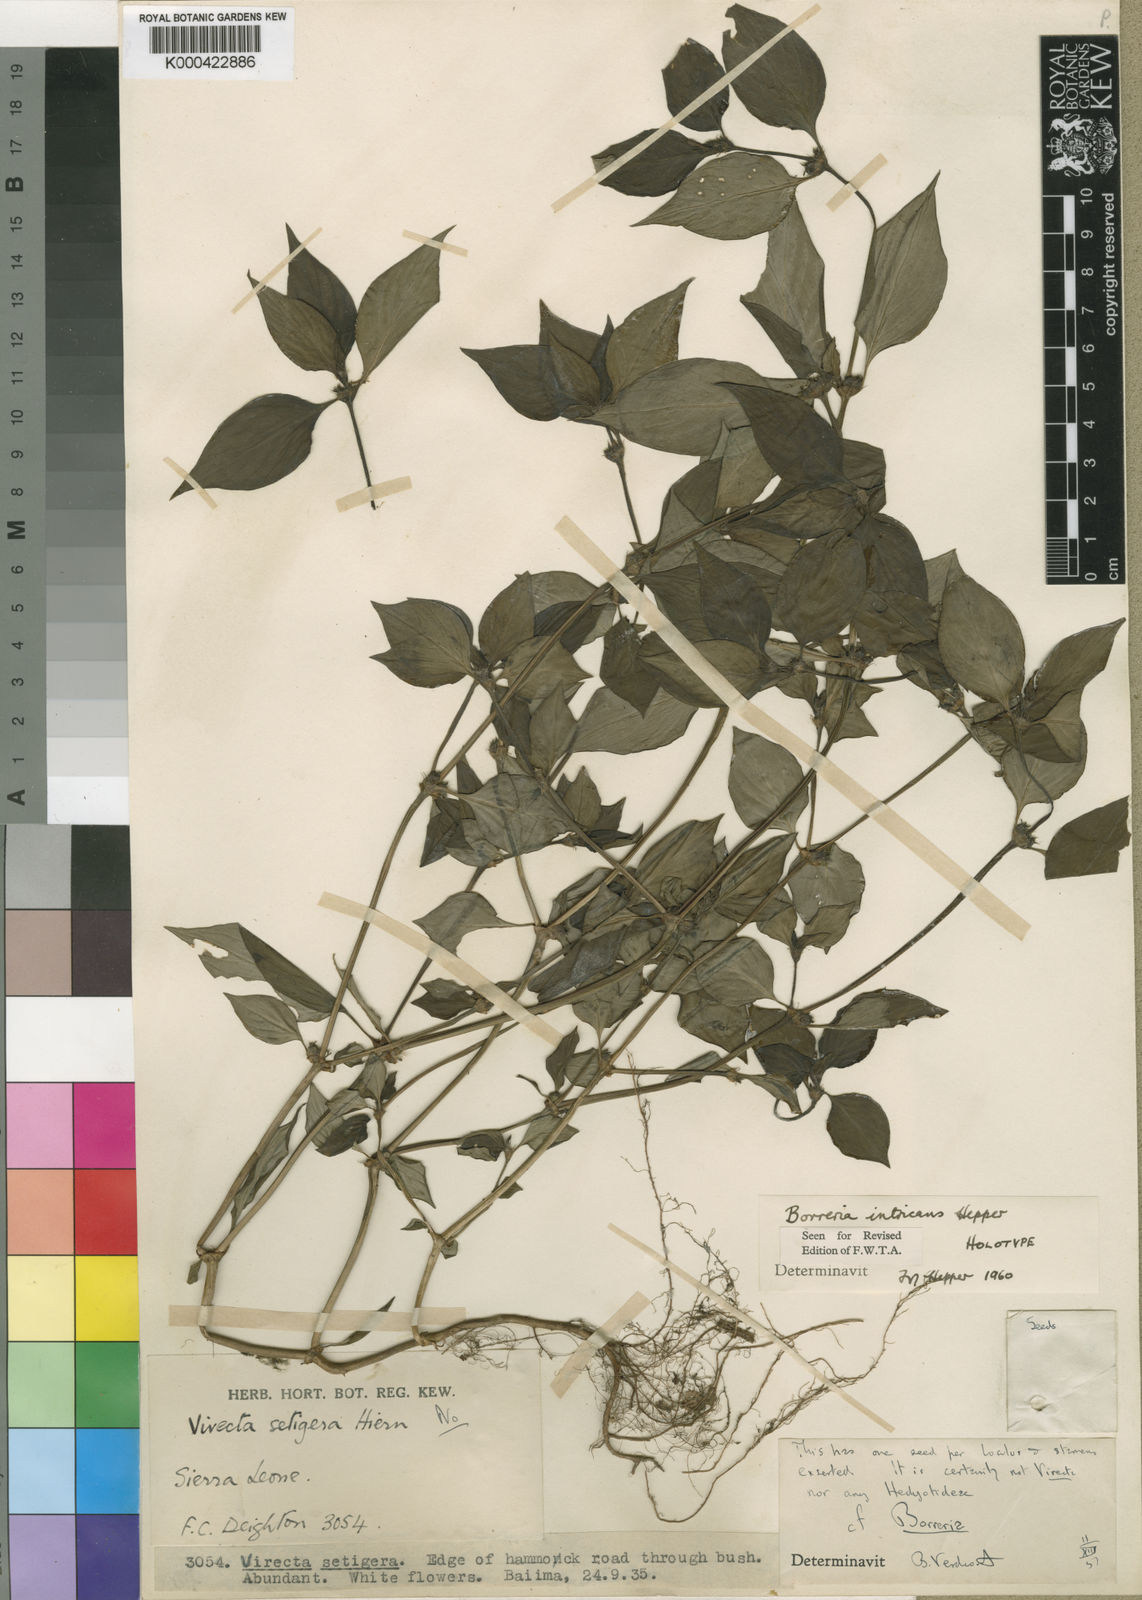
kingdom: Plantae
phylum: Tracheophyta
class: Magnoliopsida
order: Gentianales
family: Rubiaceae
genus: Spermacoce
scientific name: Spermacoce intricans
